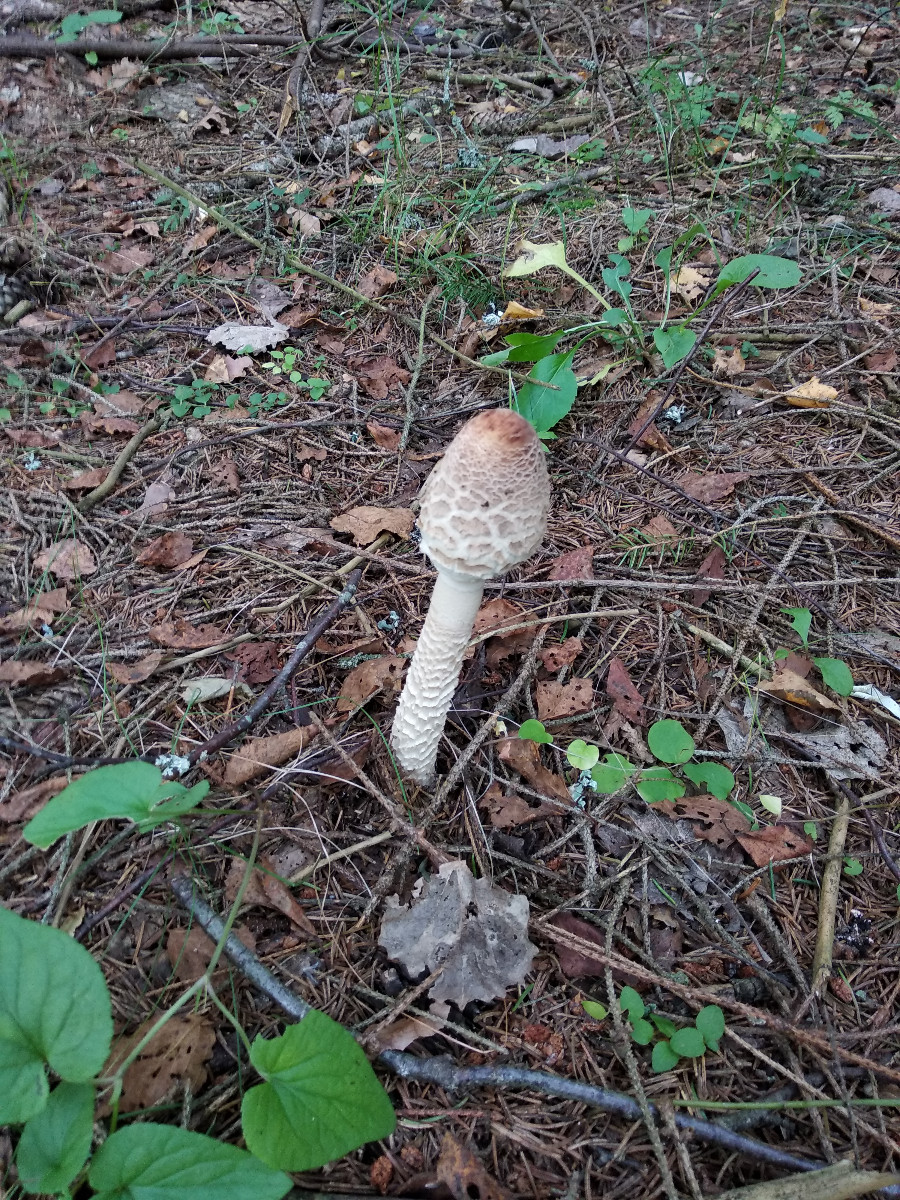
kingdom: Fungi
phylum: Basidiomycota
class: Agaricomycetes
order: Agaricales
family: Agaricaceae
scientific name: Agaricaceae
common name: champignonfamilien
